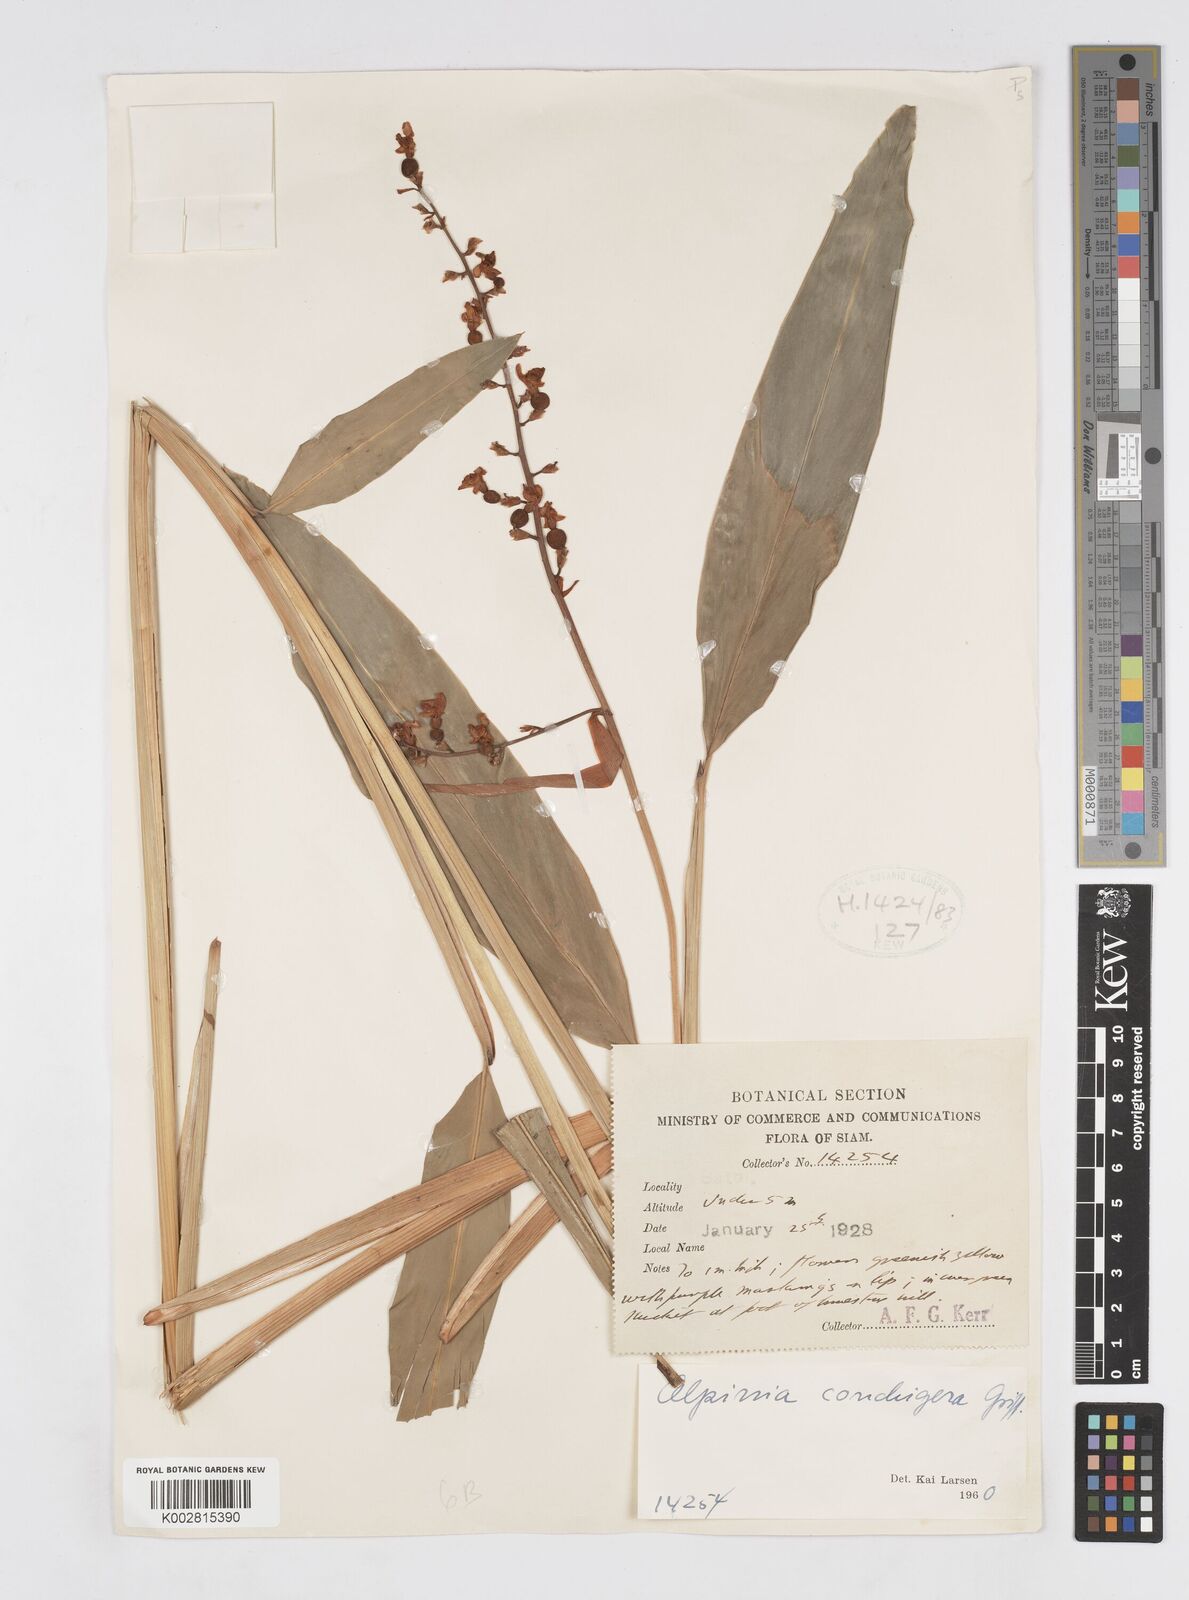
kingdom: Plantae
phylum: Tracheophyta
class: Liliopsida
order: Zingiberales
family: Zingiberaceae
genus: Alpinia
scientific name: Alpinia conchigera
